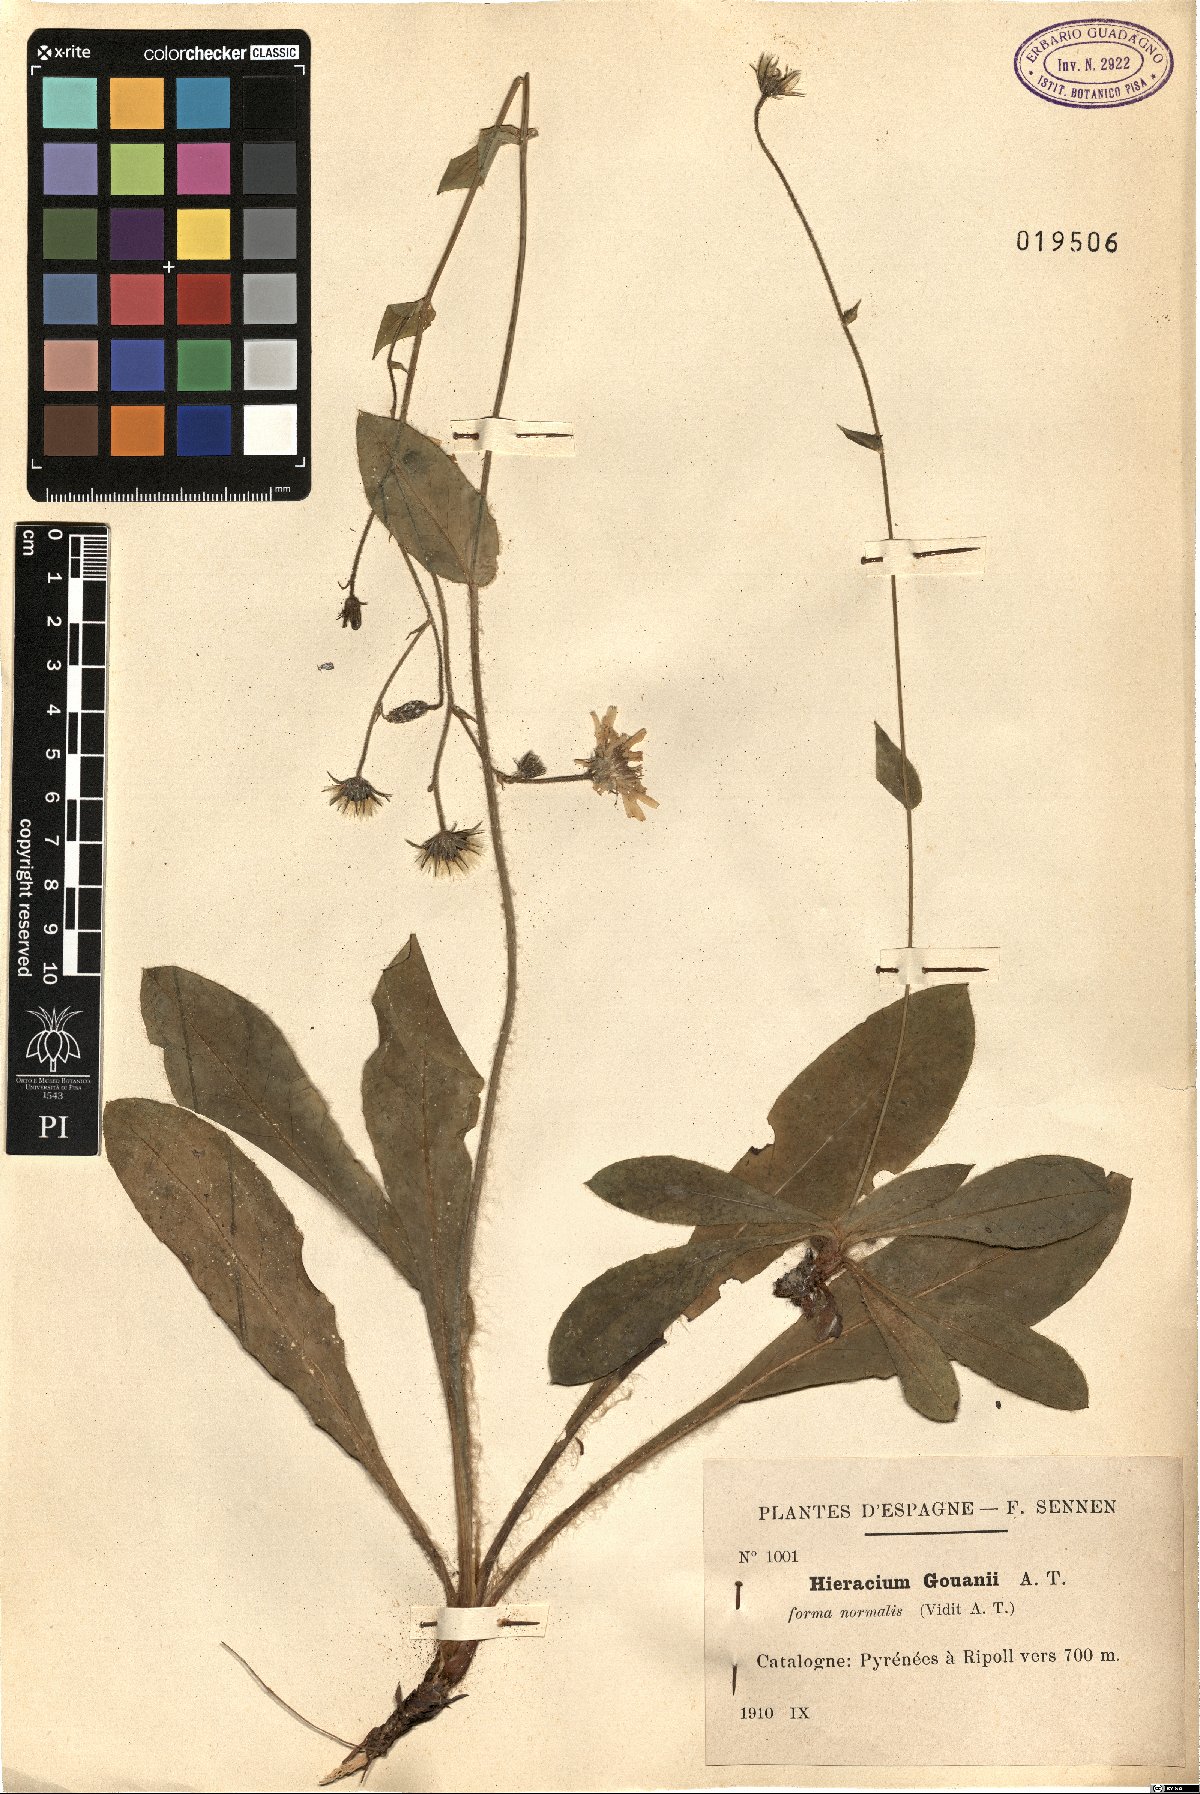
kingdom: Plantae
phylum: Tracheophyta
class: Magnoliopsida
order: Asterales
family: Asteraceae
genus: Hieracium
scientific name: Hieracium gouanii
